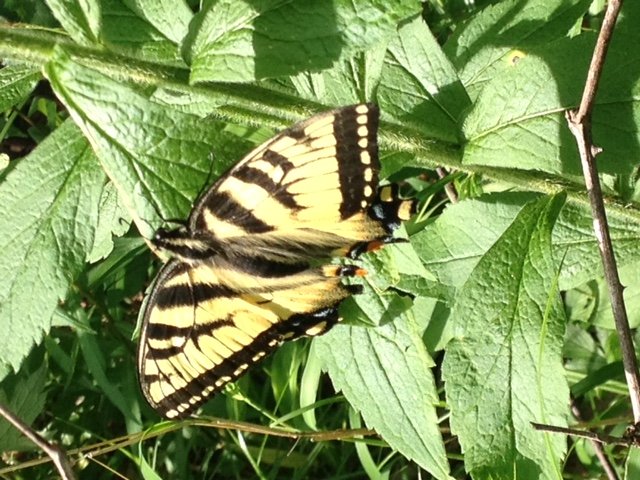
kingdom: Animalia
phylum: Arthropoda
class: Insecta
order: Lepidoptera
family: Papilionidae
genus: Pterourus
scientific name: Pterourus canadensis
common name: Canadian Tiger Swallowtail
